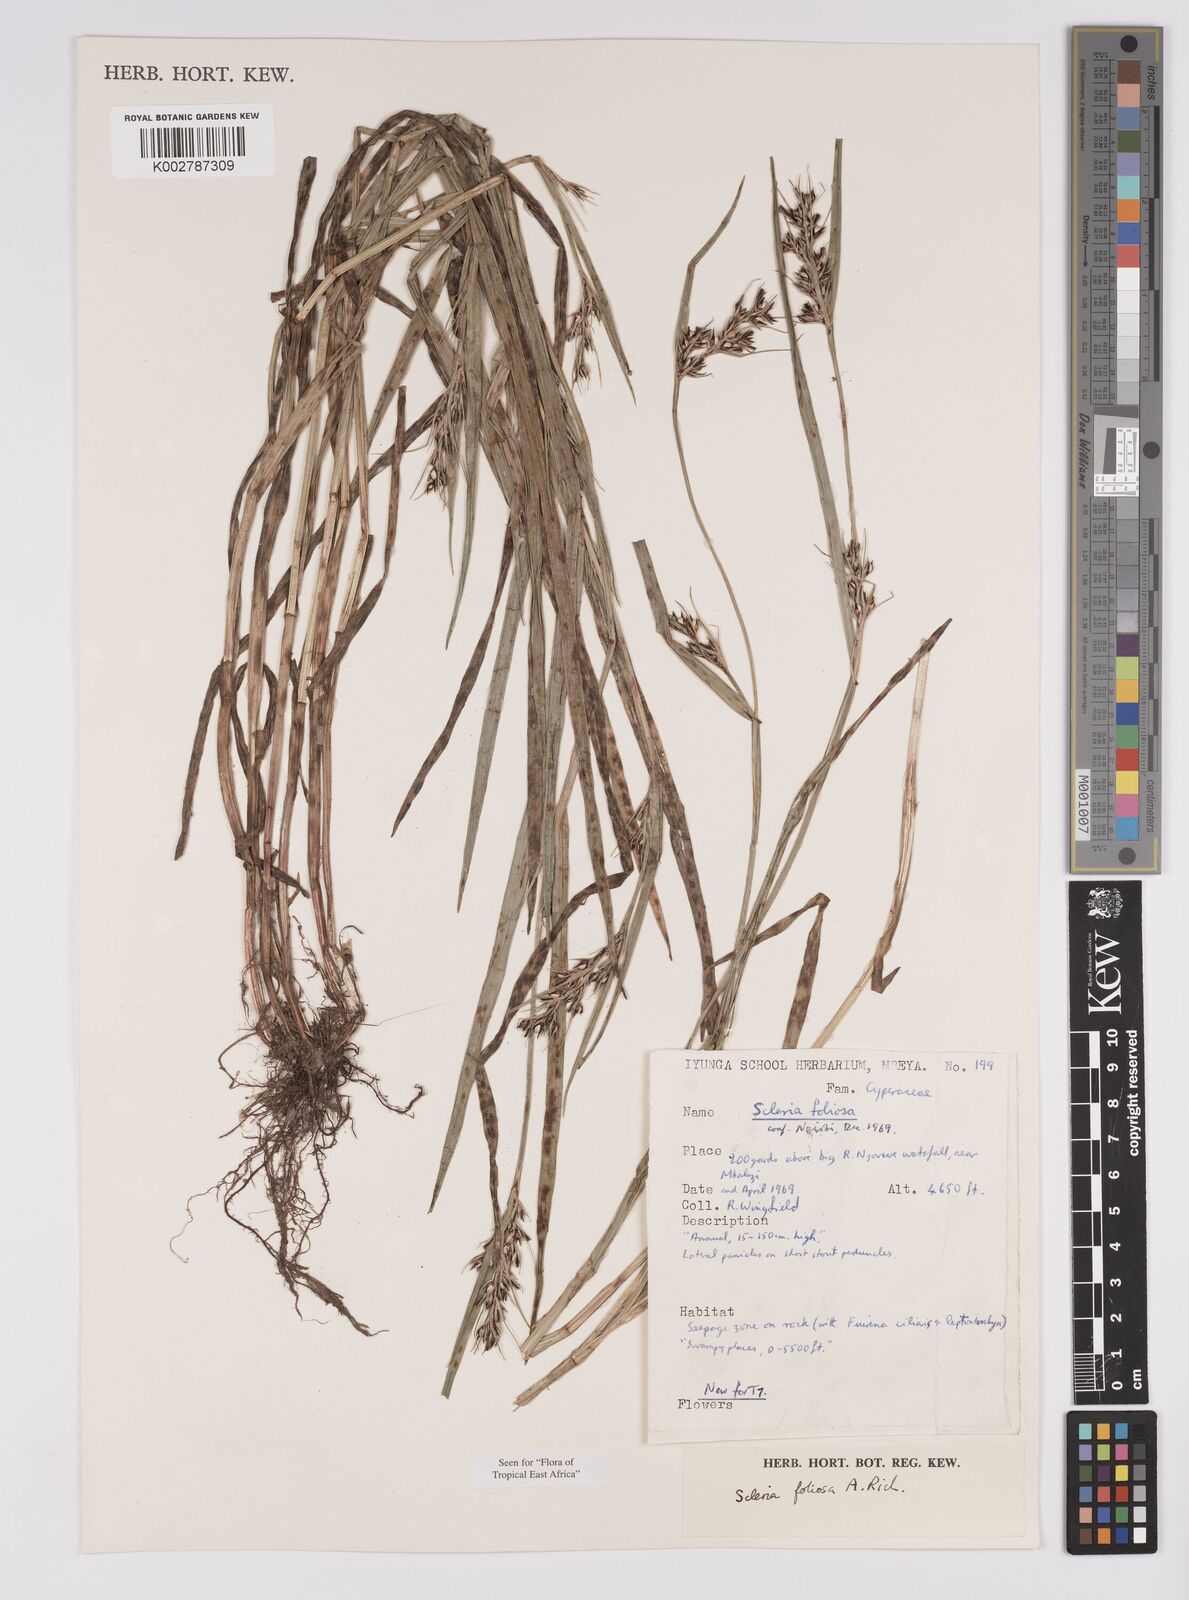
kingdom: Plantae
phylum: Tracheophyta
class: Liliopsida
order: Poales
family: Cyperaceae
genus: Scleria
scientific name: Scleria foliosa
